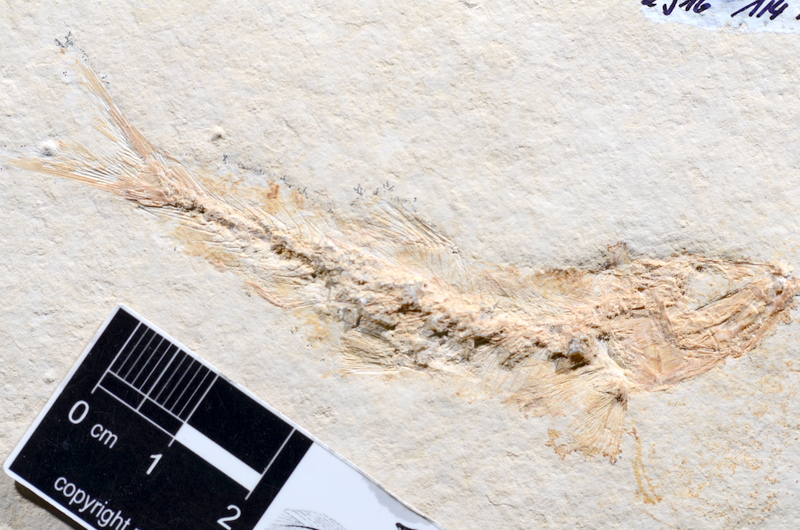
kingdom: Animalia
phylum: Chordata
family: Ascalaboidae
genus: Tharsis
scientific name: Tharsis dubius
